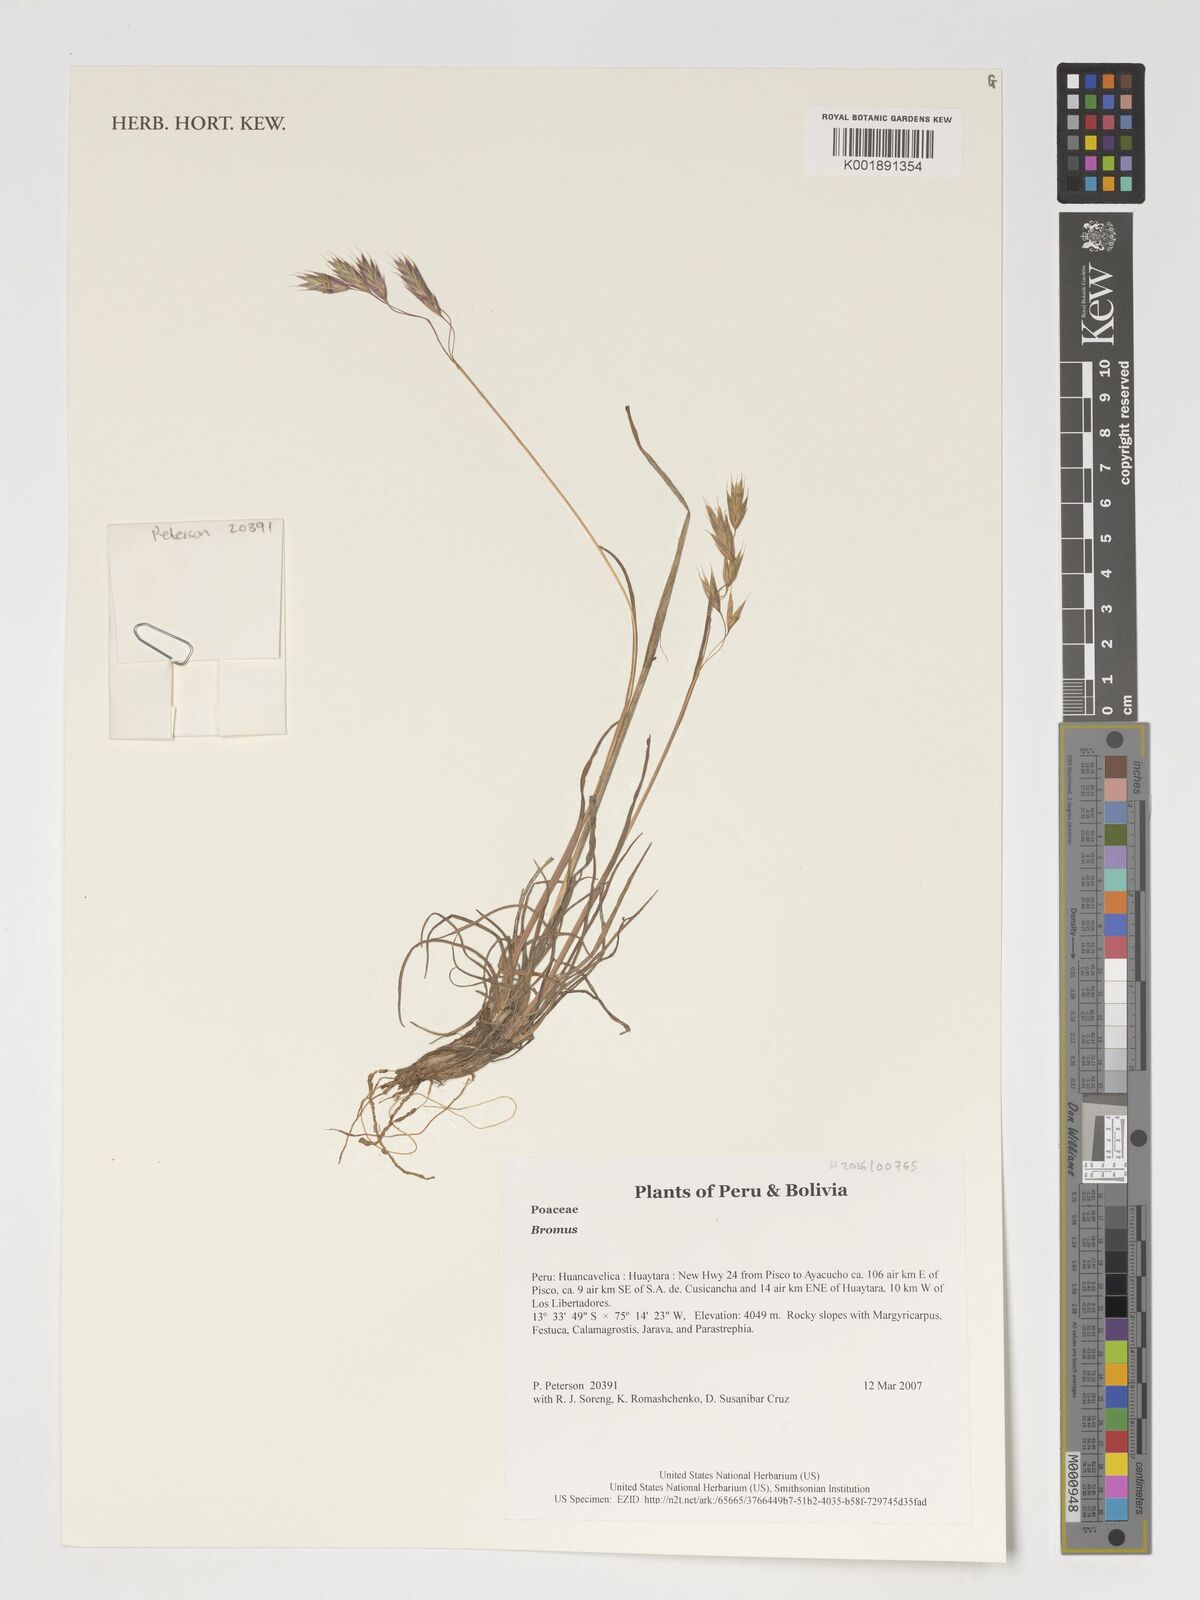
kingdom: Plantae
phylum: Tracheophyta
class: Liliopsida
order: Poales
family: Poaceae
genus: Bromus
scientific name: Bromus
